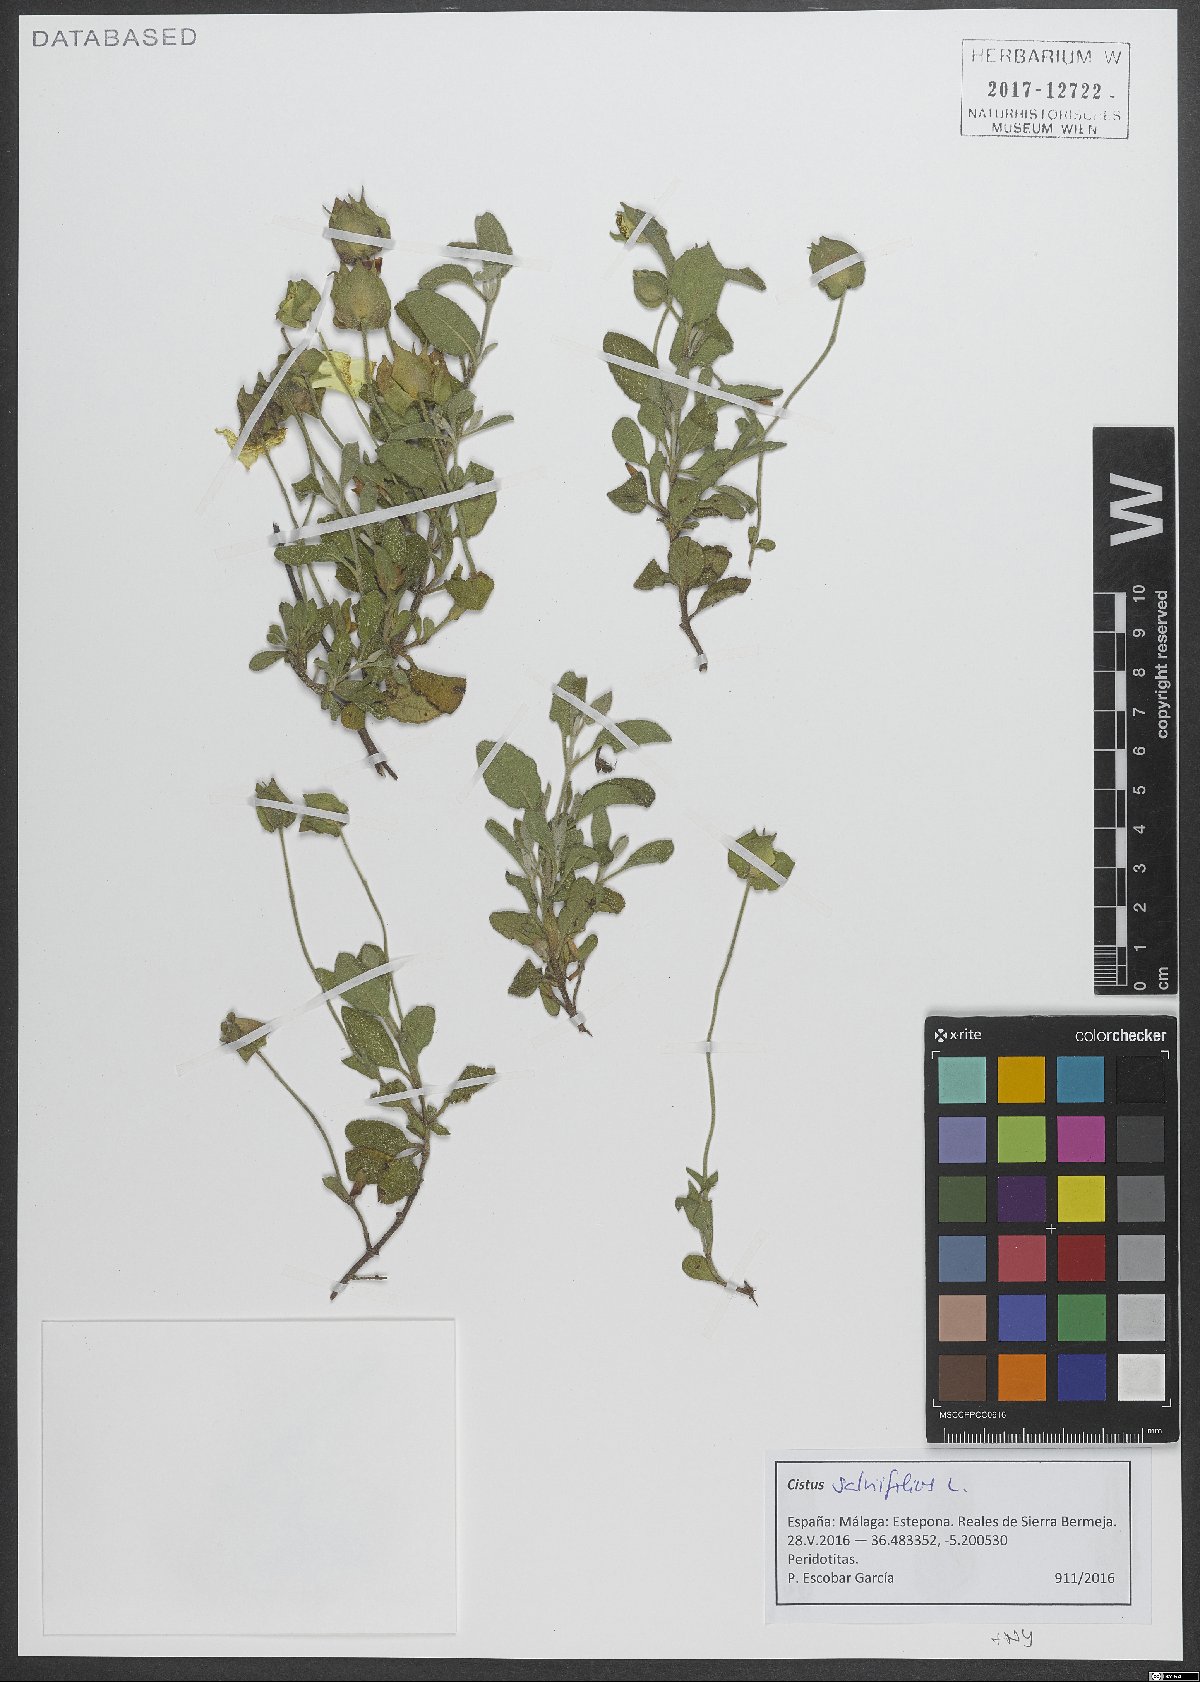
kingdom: Plantae
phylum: Tracheophyta
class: Magnoliopsida
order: Malvales
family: Cistaceae
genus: Cistus
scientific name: Cistus salviifolius
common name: Salvia cistus
